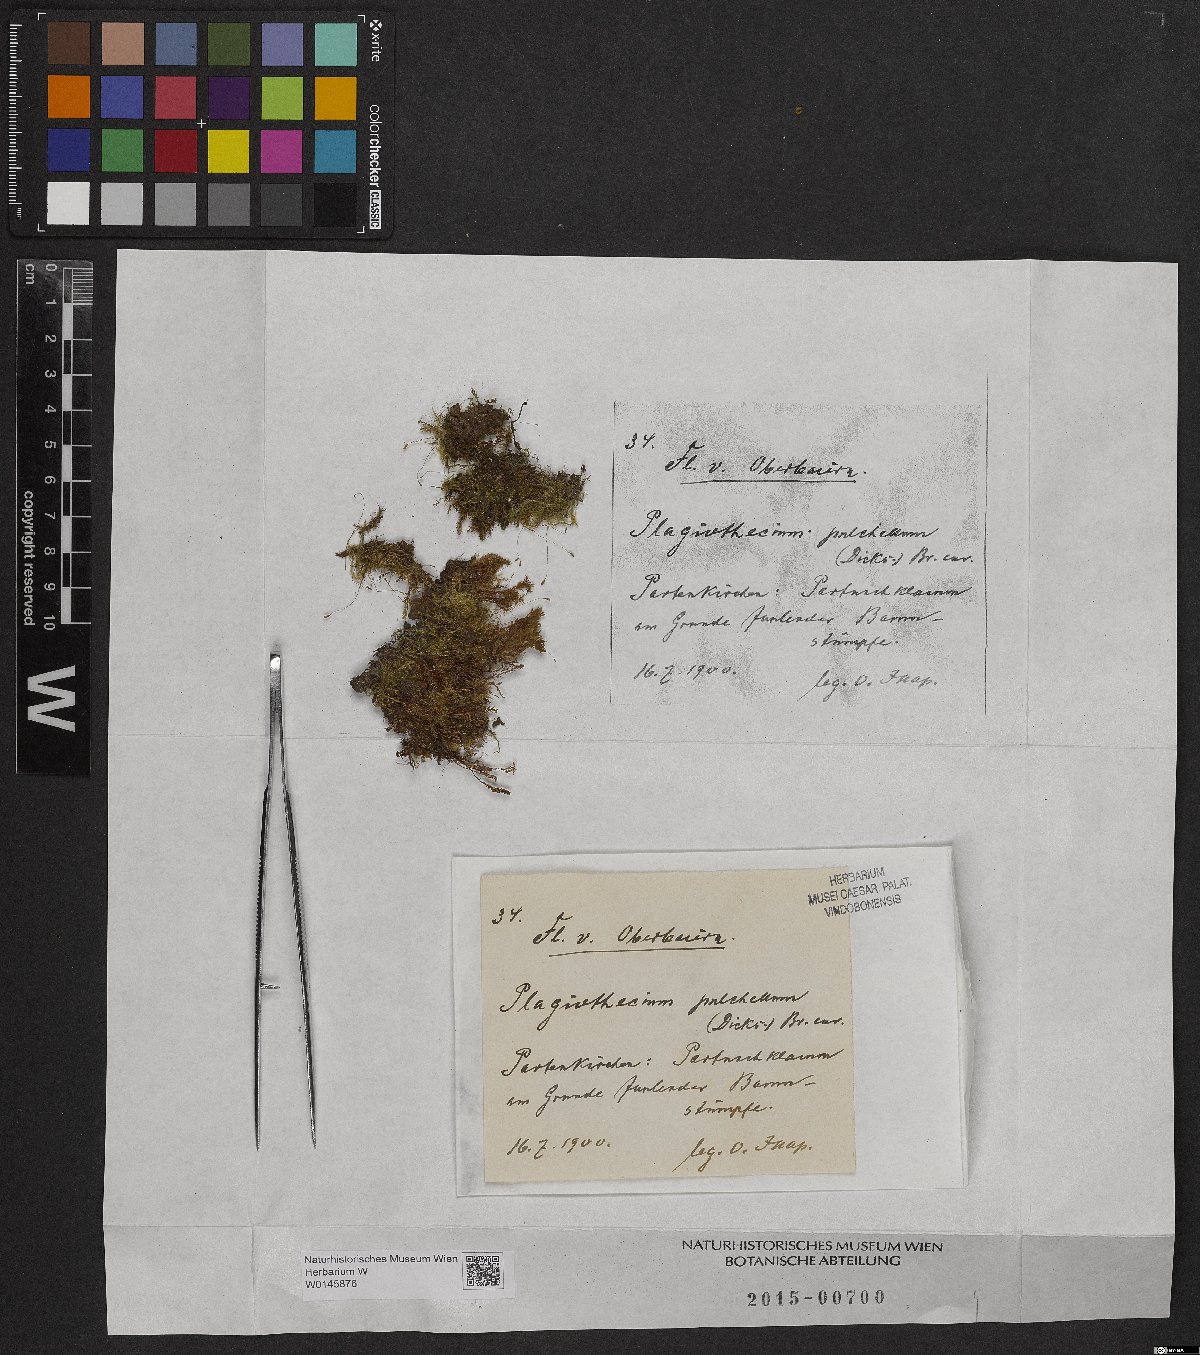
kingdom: Plantae
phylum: Bryophyta
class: Bryopsida
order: Hypnales
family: Plagiotheciaceae
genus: Isopterygiella
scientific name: Isopterygiella pulchella
